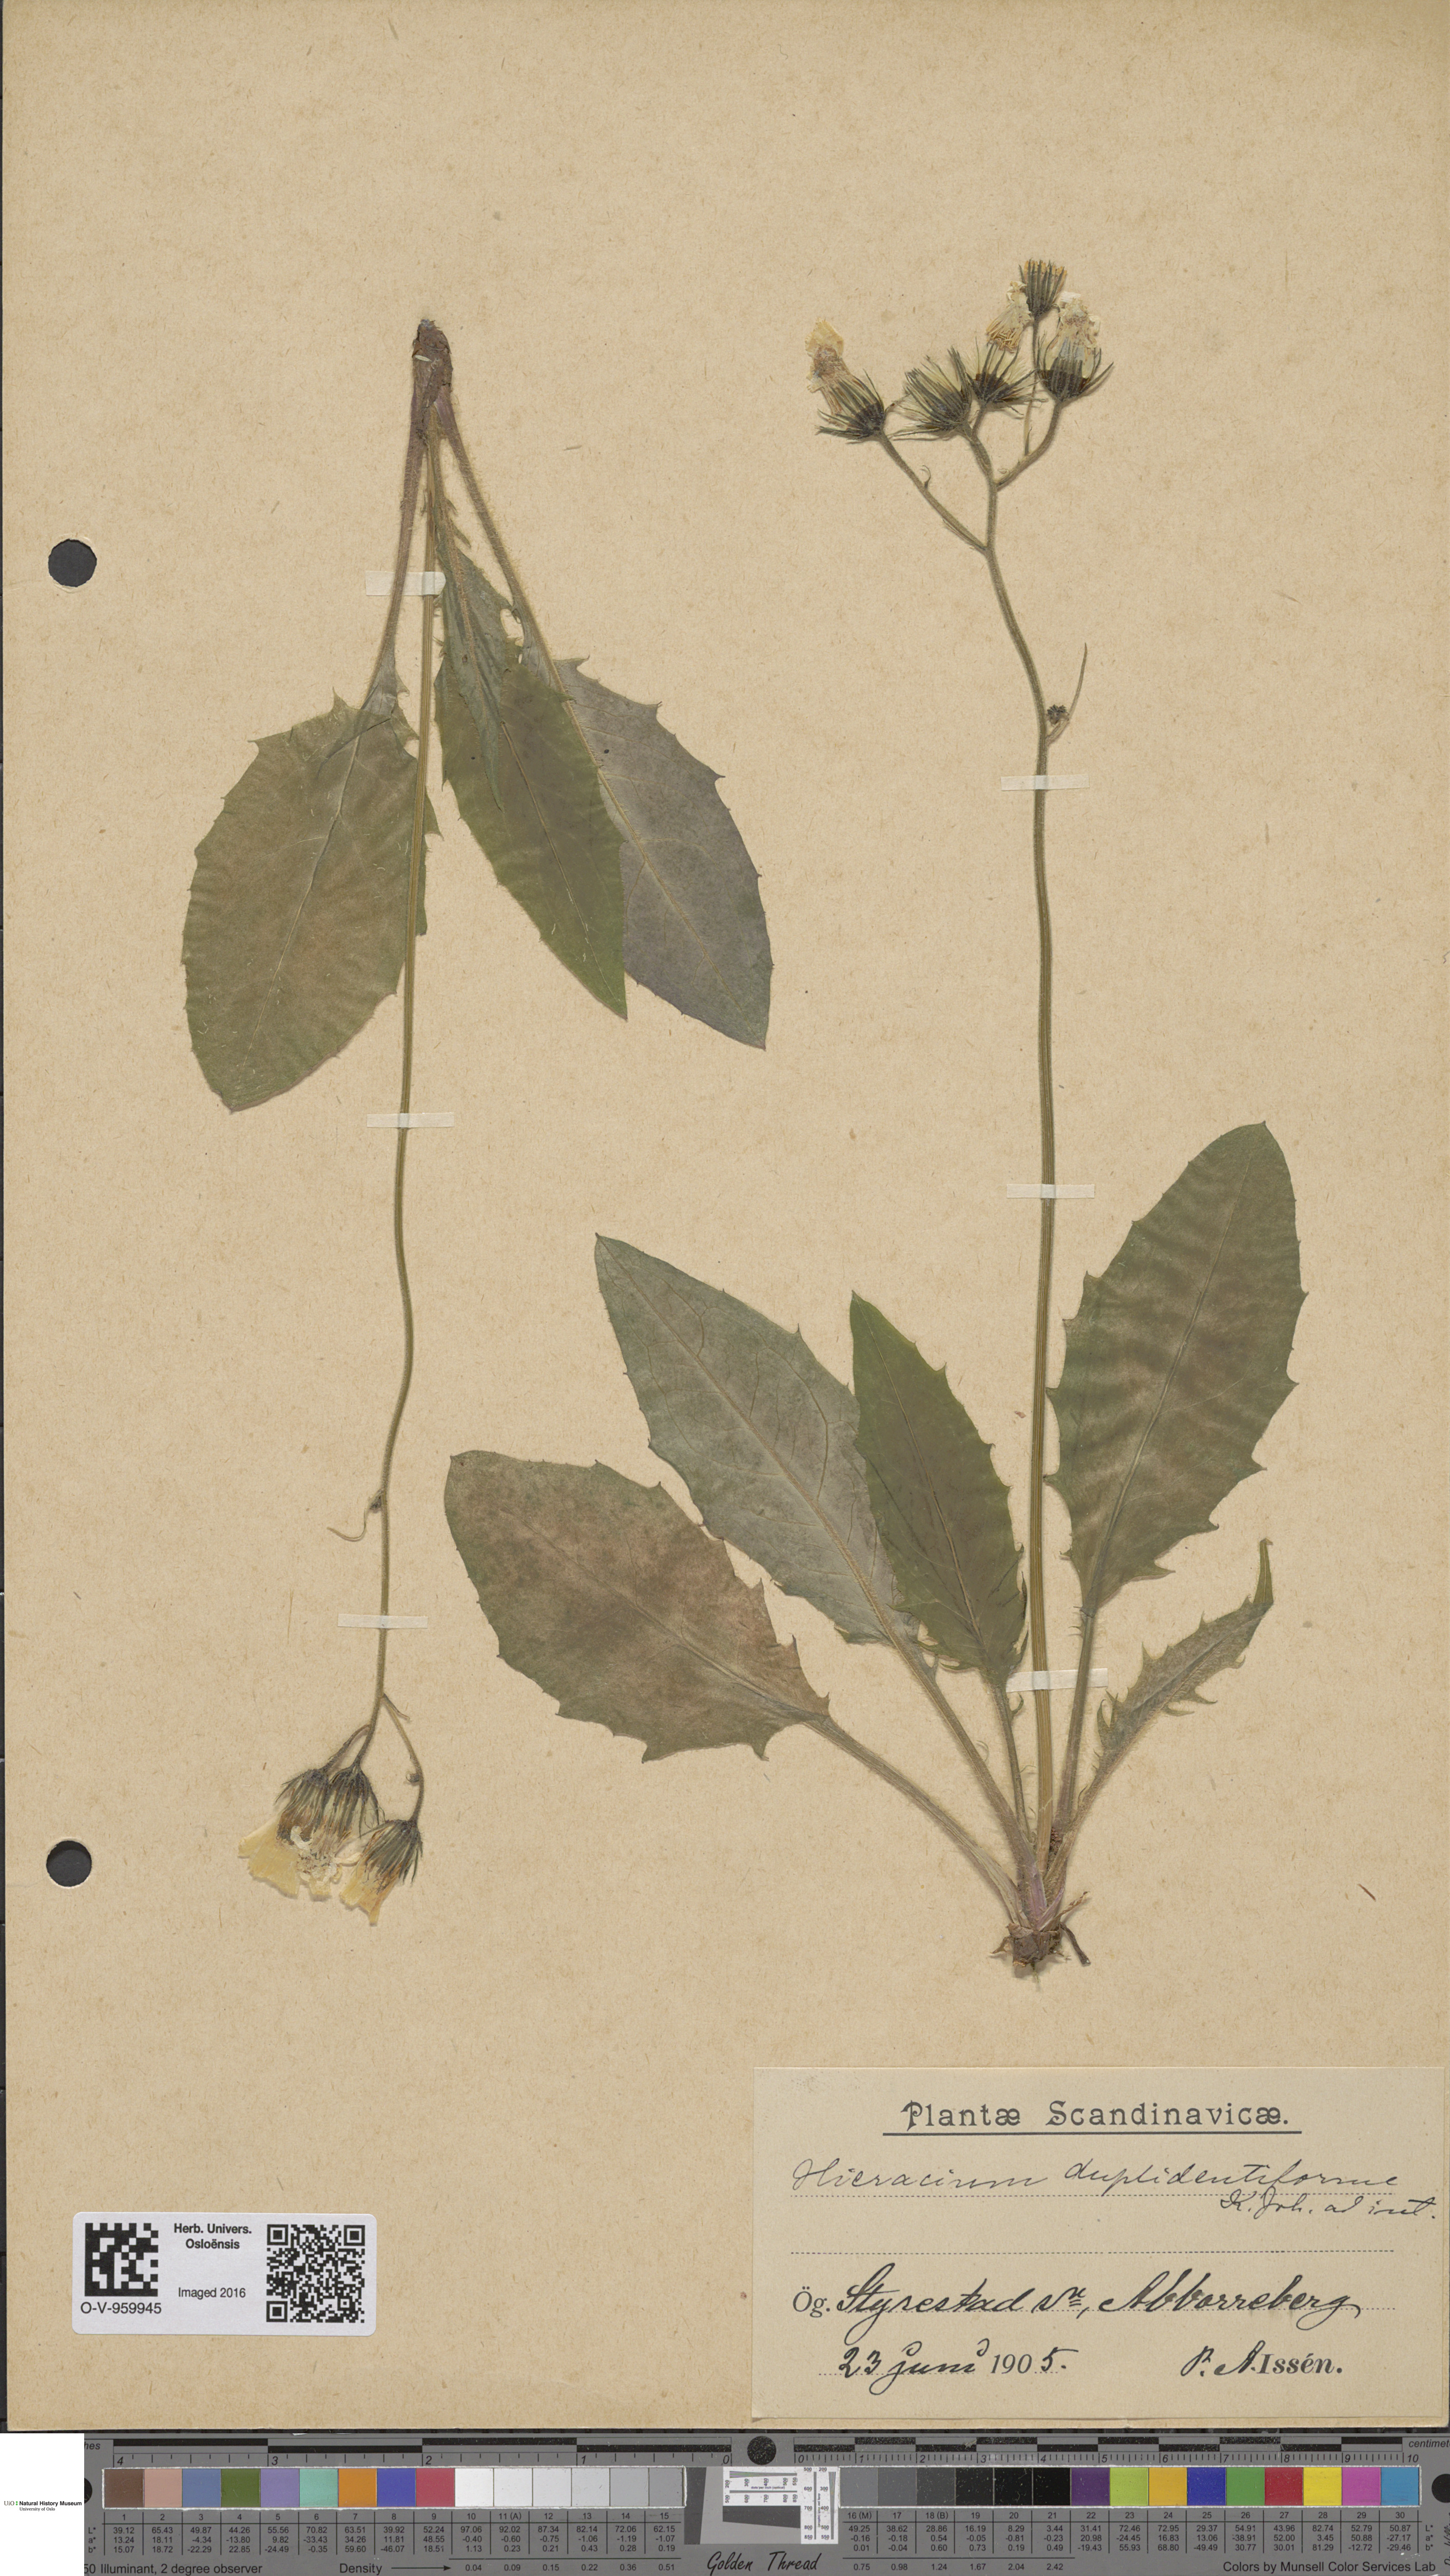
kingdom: Plantae
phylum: Tracheophyta
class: Magnoliopsida
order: Asterales
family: Asteraceae
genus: Hieracium
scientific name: Hieracium
